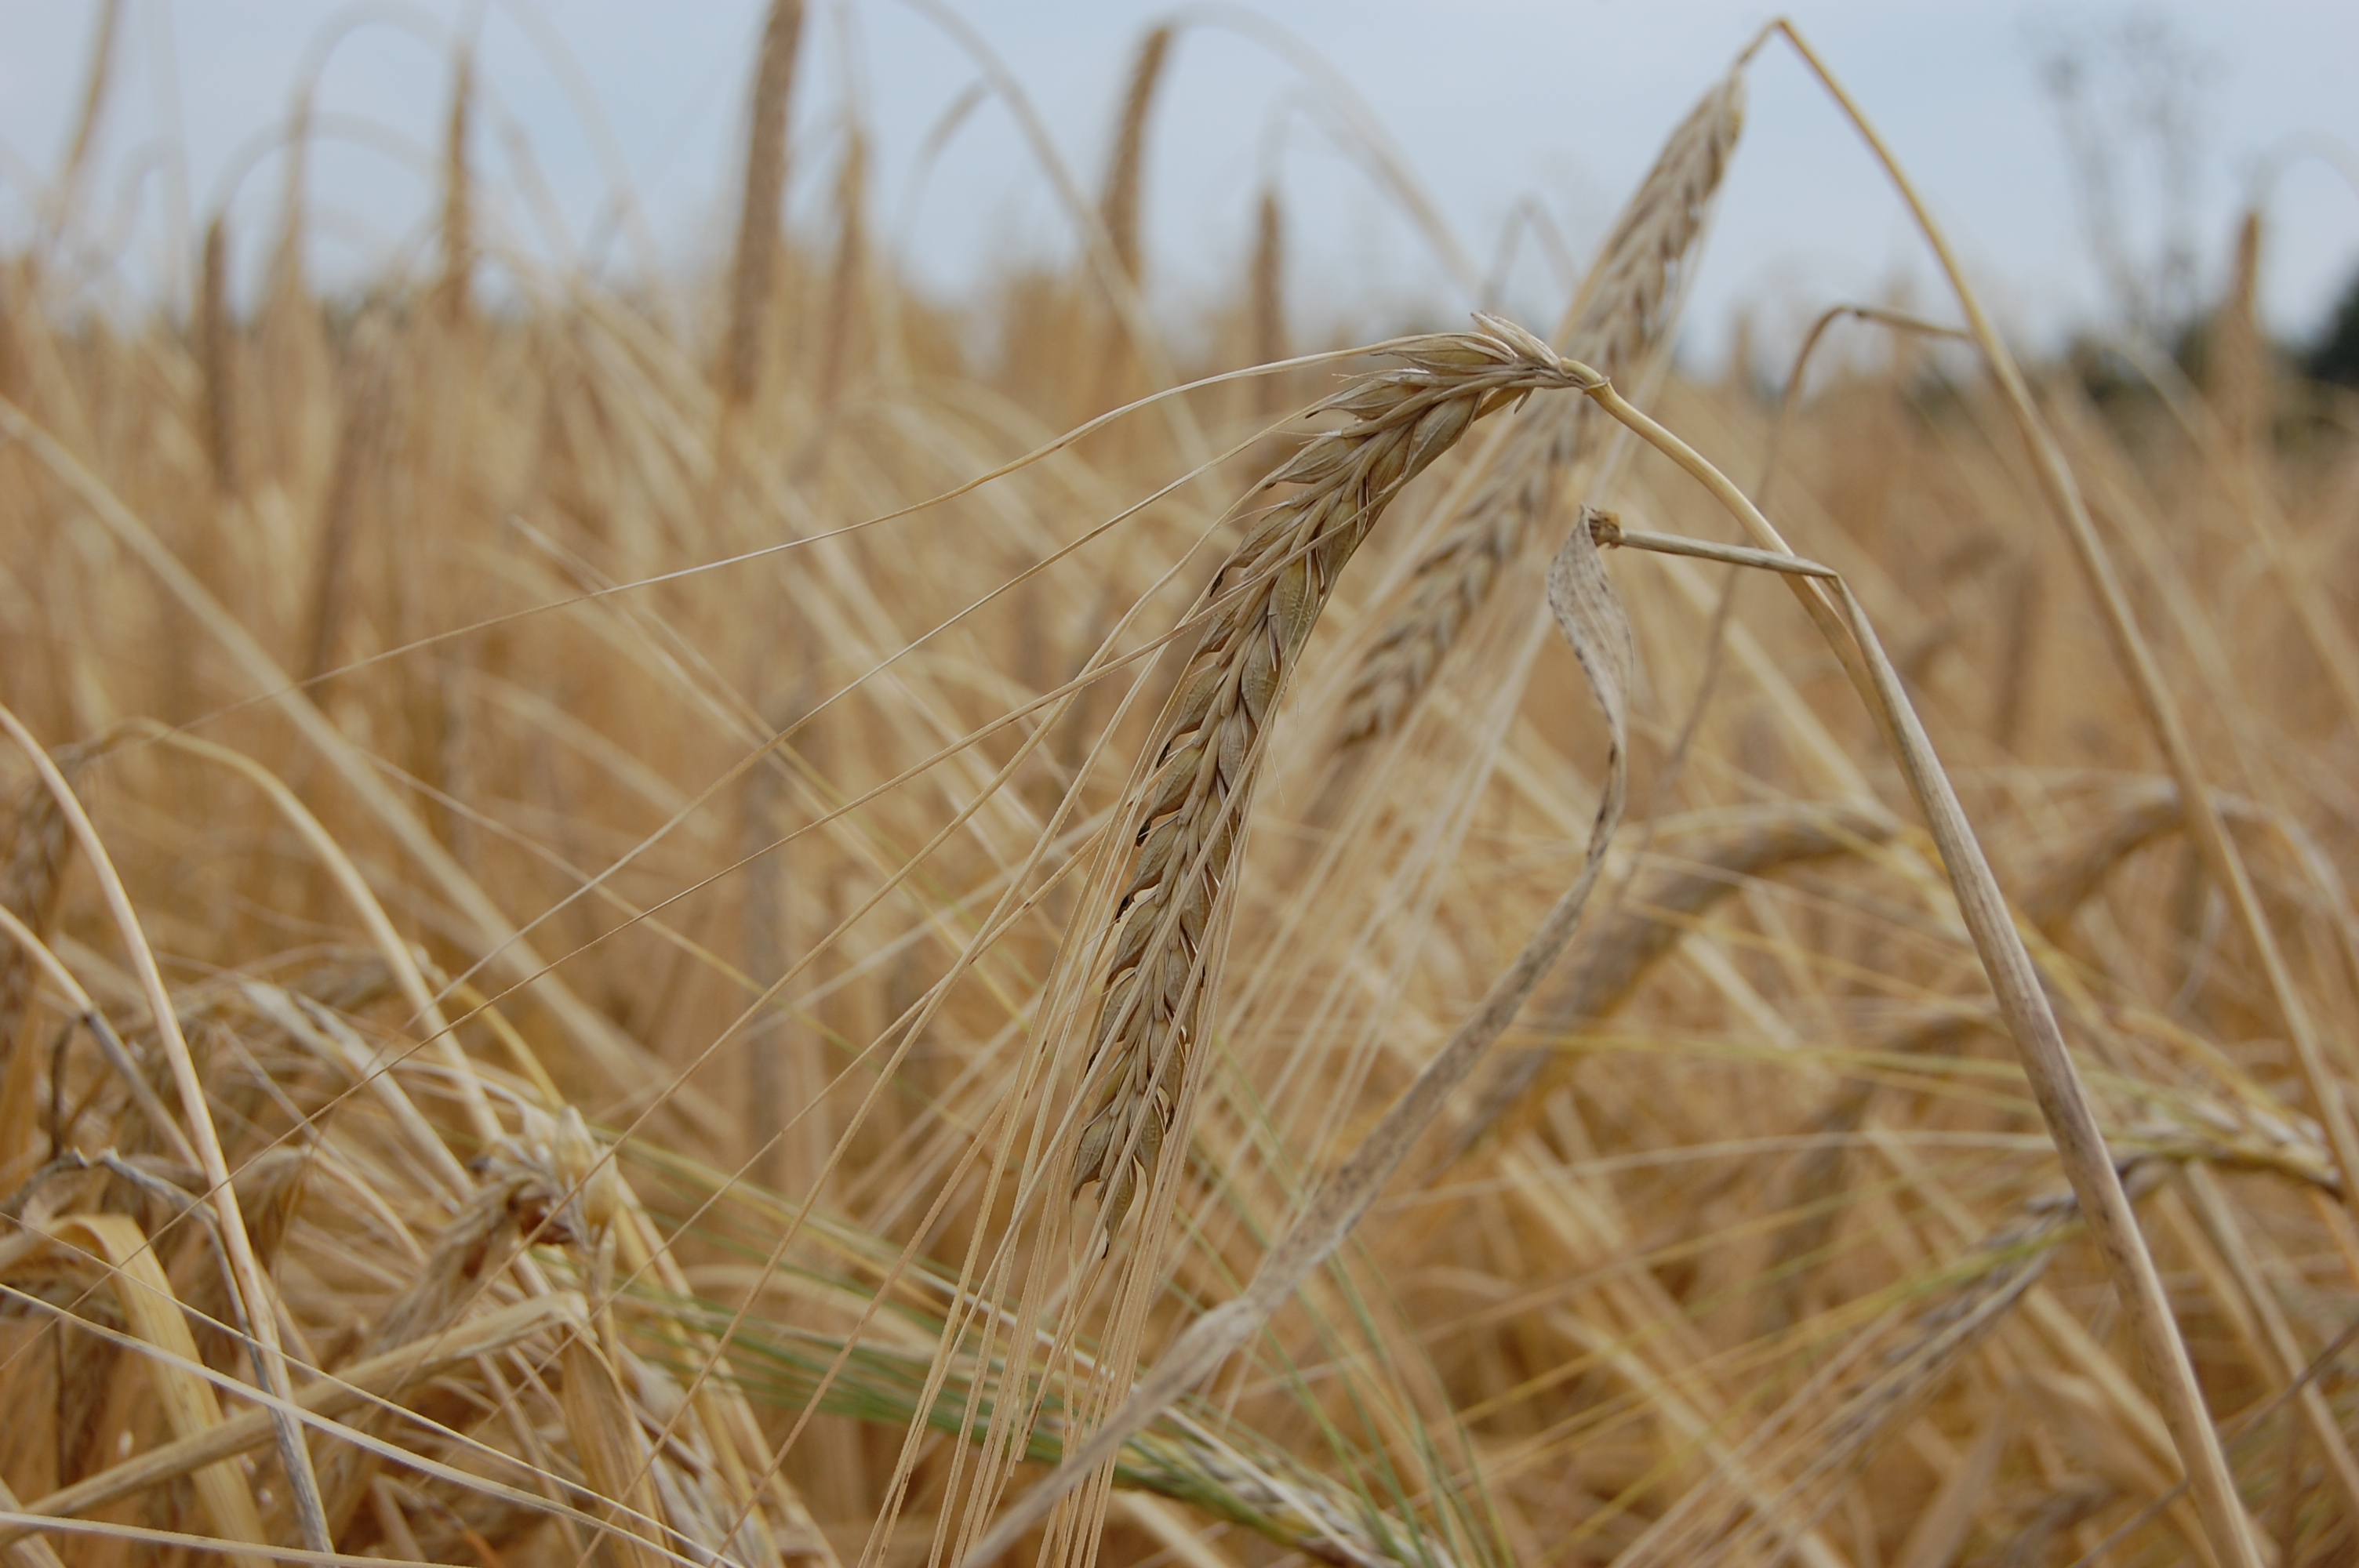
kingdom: Plantae
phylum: Tracheophyta
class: Liliopsida
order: Poales
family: Poaceae
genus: Hordeum
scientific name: Hordeum vulgare
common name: Common barley
